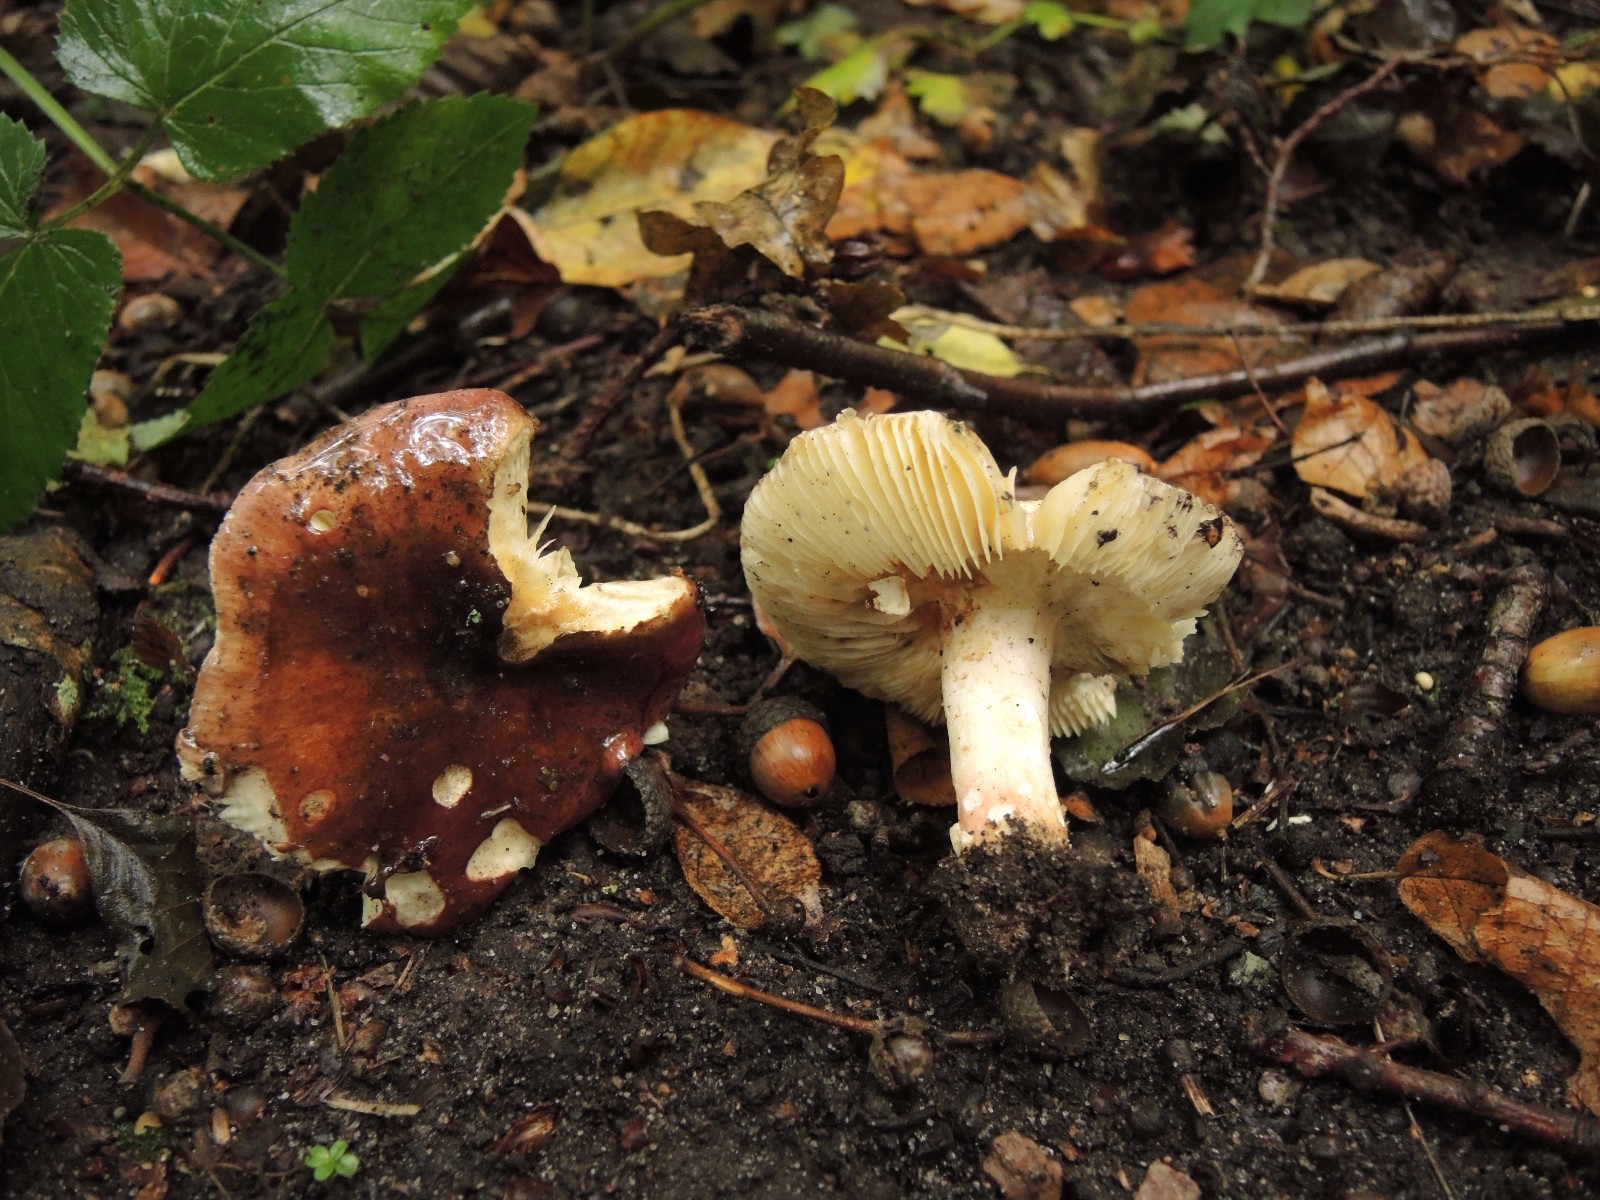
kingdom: Fungi
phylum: Basidiomycota
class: Agaricomycetes
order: Russulales
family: Russulaceae
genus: Russula
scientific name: Russula graveolens
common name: bugtet skørhat
